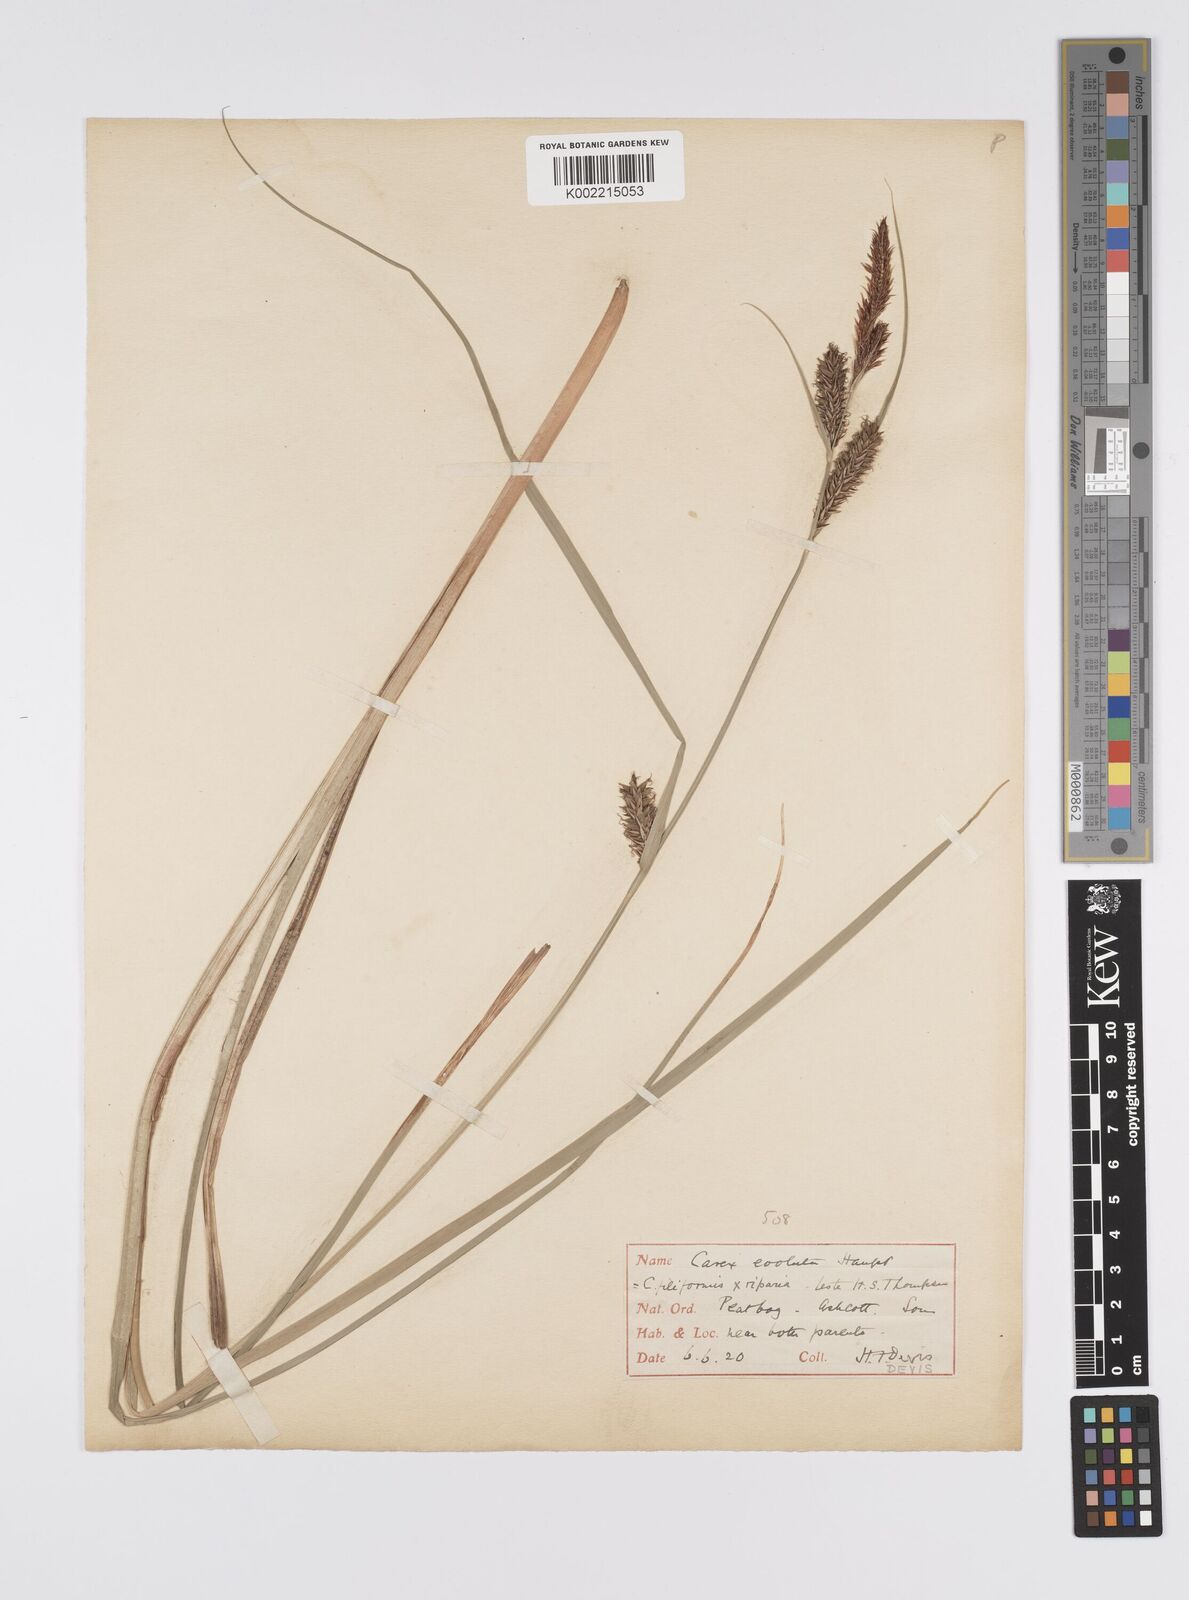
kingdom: Plantae
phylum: Tracheophyta
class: Liliopsida
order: Poales
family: Cyperaceae
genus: Carex
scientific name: Carex evoluta
